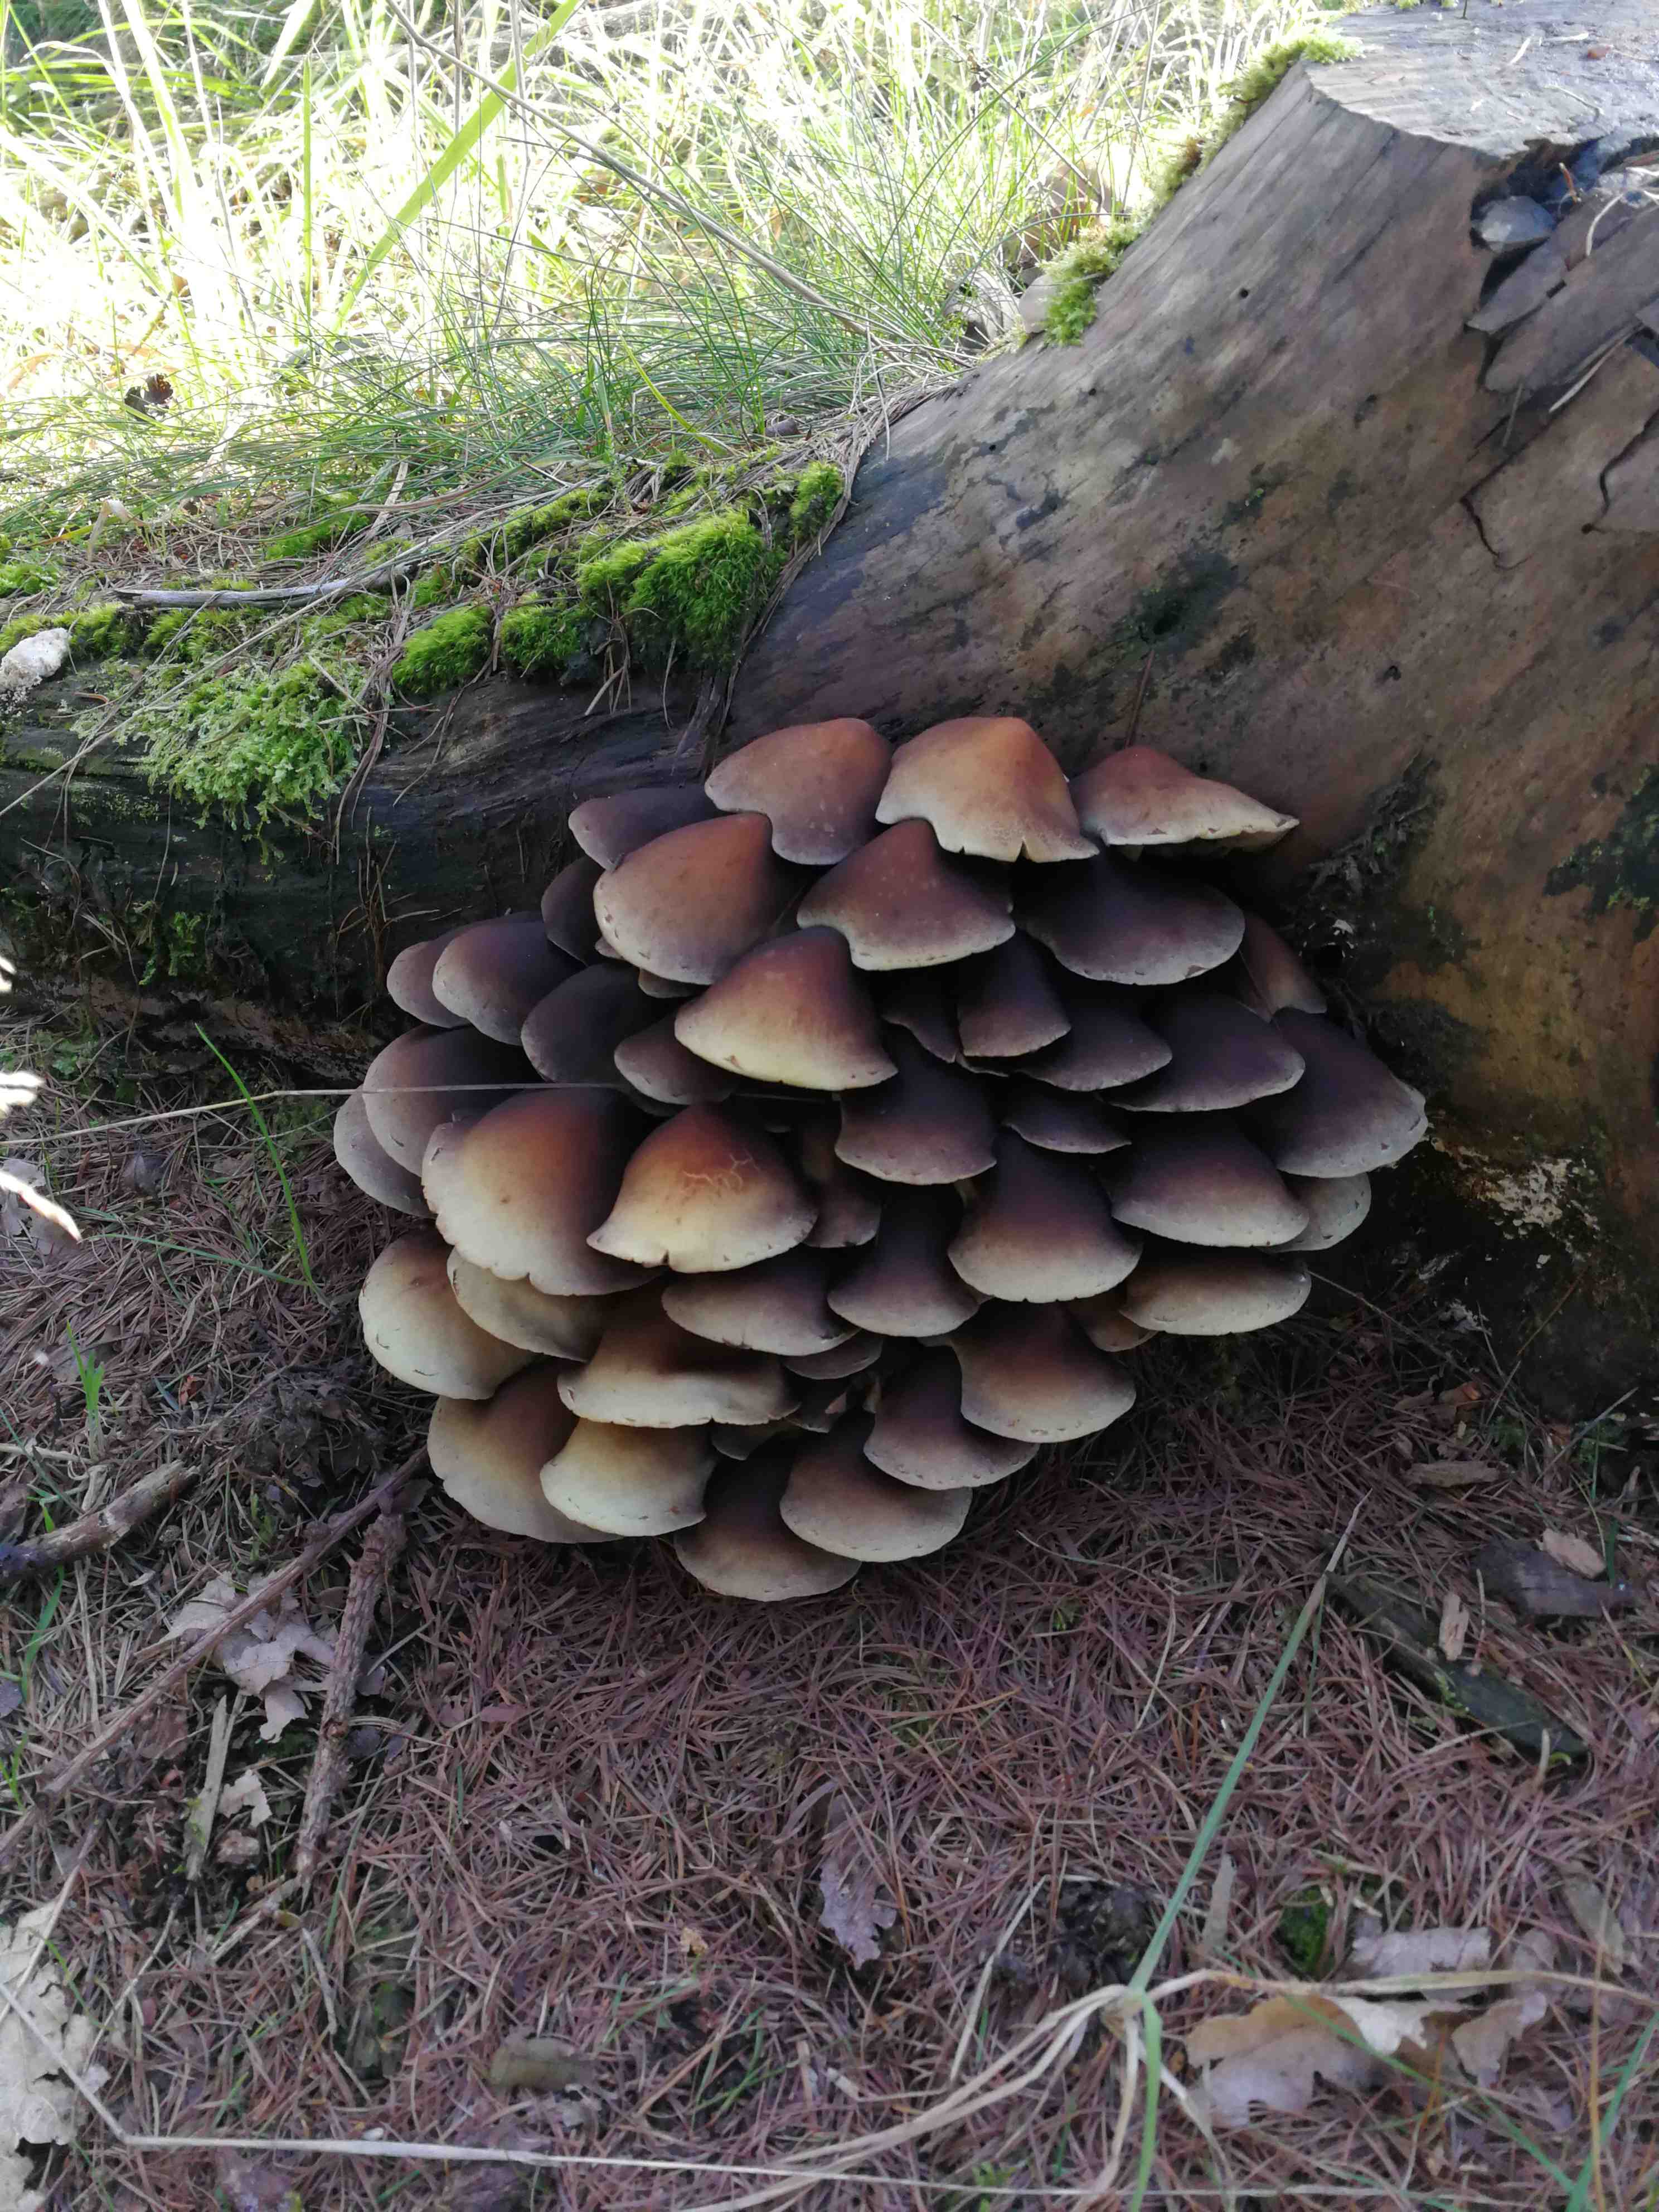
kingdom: Fungi
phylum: Basidiomycota
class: Agaricomycetes
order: Agaricales
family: Strophariaceae
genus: Hypholoma
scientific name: Hypholoma
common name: svovlhat
